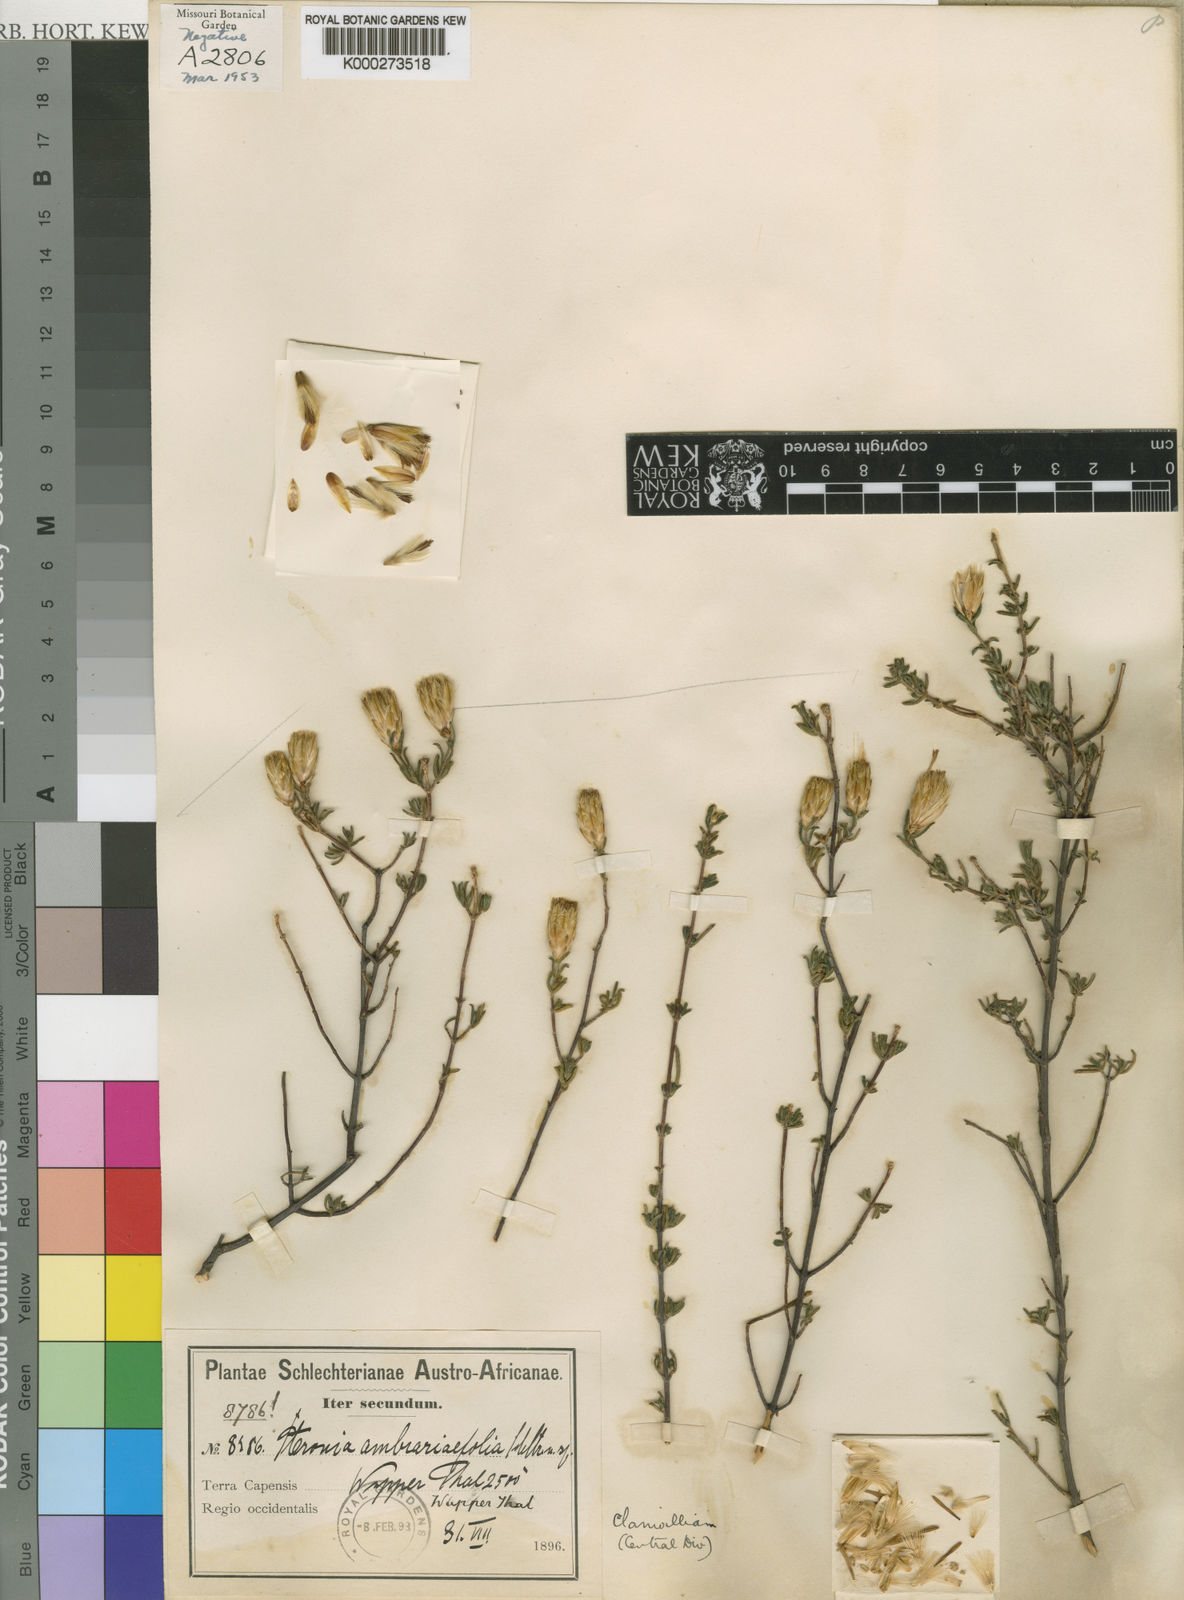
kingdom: Plantae
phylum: Tracheophyta
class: Magnoliopsida
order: Asterales
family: Asteraceae
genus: Pteronia
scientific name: Pteronia ambrariifolia
